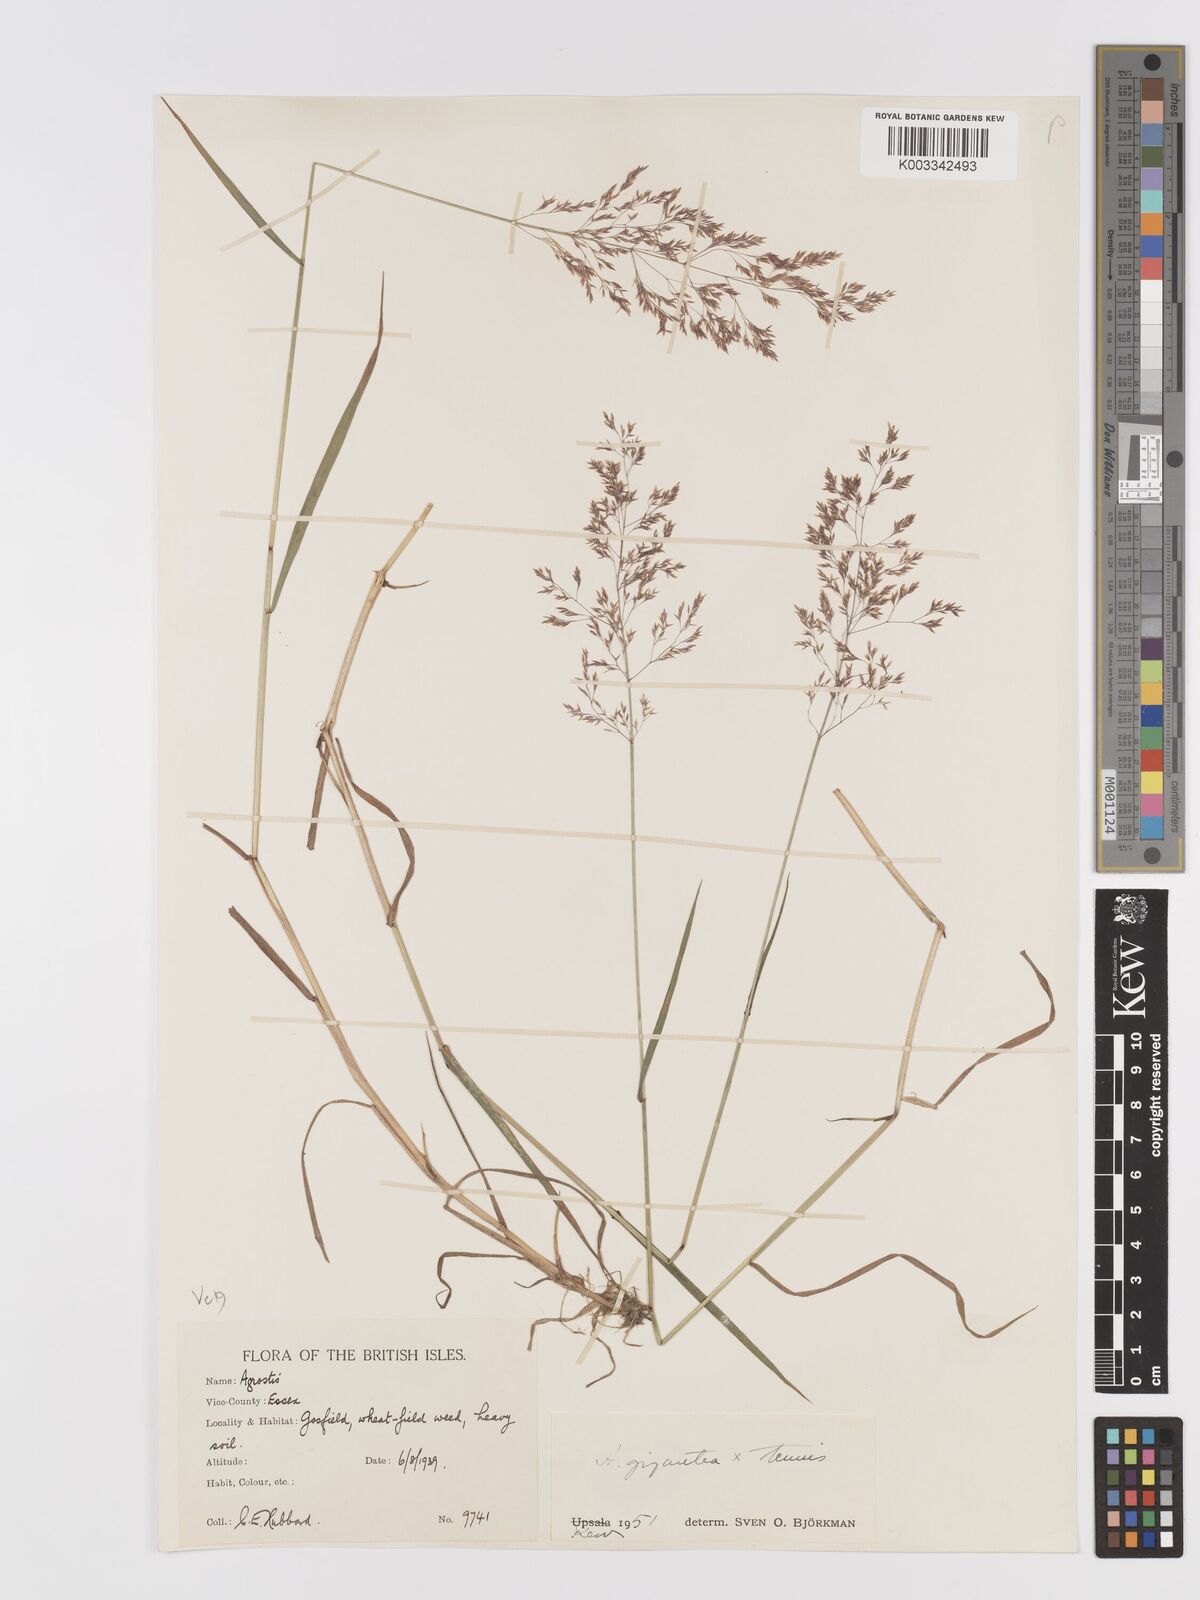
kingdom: Plantae
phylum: Tracheophyta
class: Liliopsida
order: Poales
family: Poaceae
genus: Agrostis
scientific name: Agrostis capillaris
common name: Colonial bentgrass
